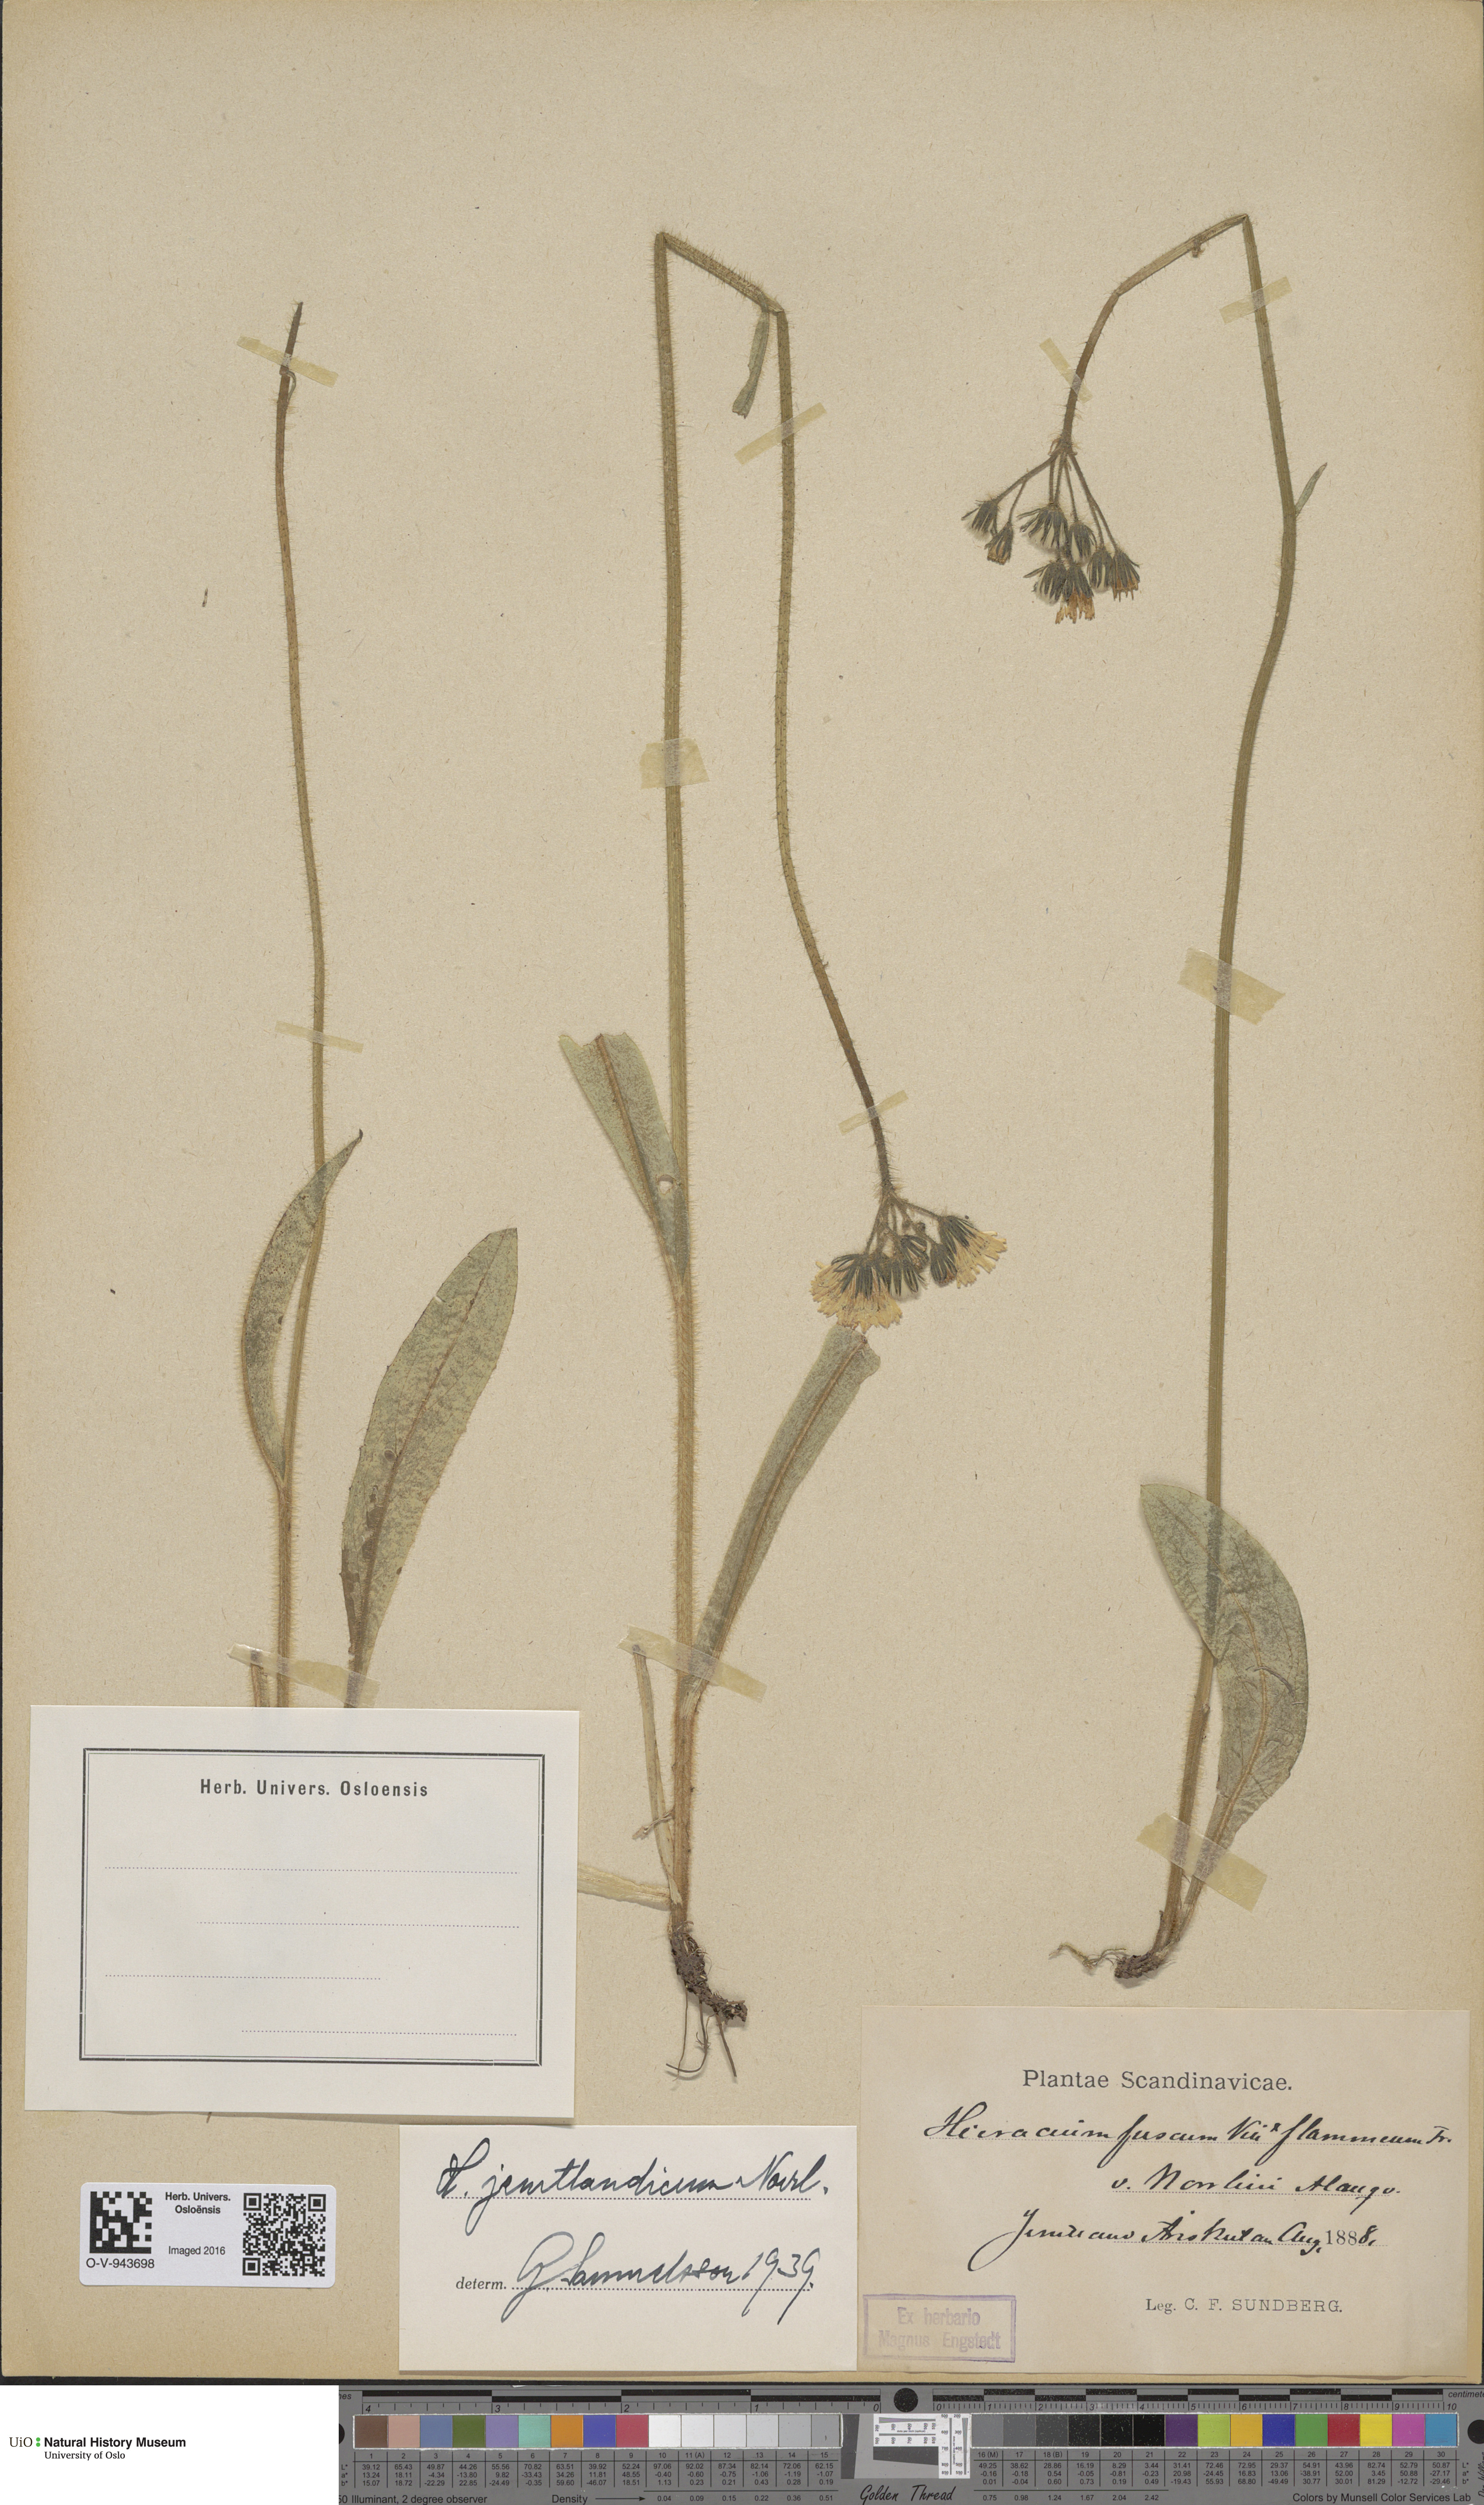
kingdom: Plantae
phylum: Tracheophyta
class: Magnoliopsida
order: Asterales
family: Asteraceae
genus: Pilosella
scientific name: Pilosella fusca
